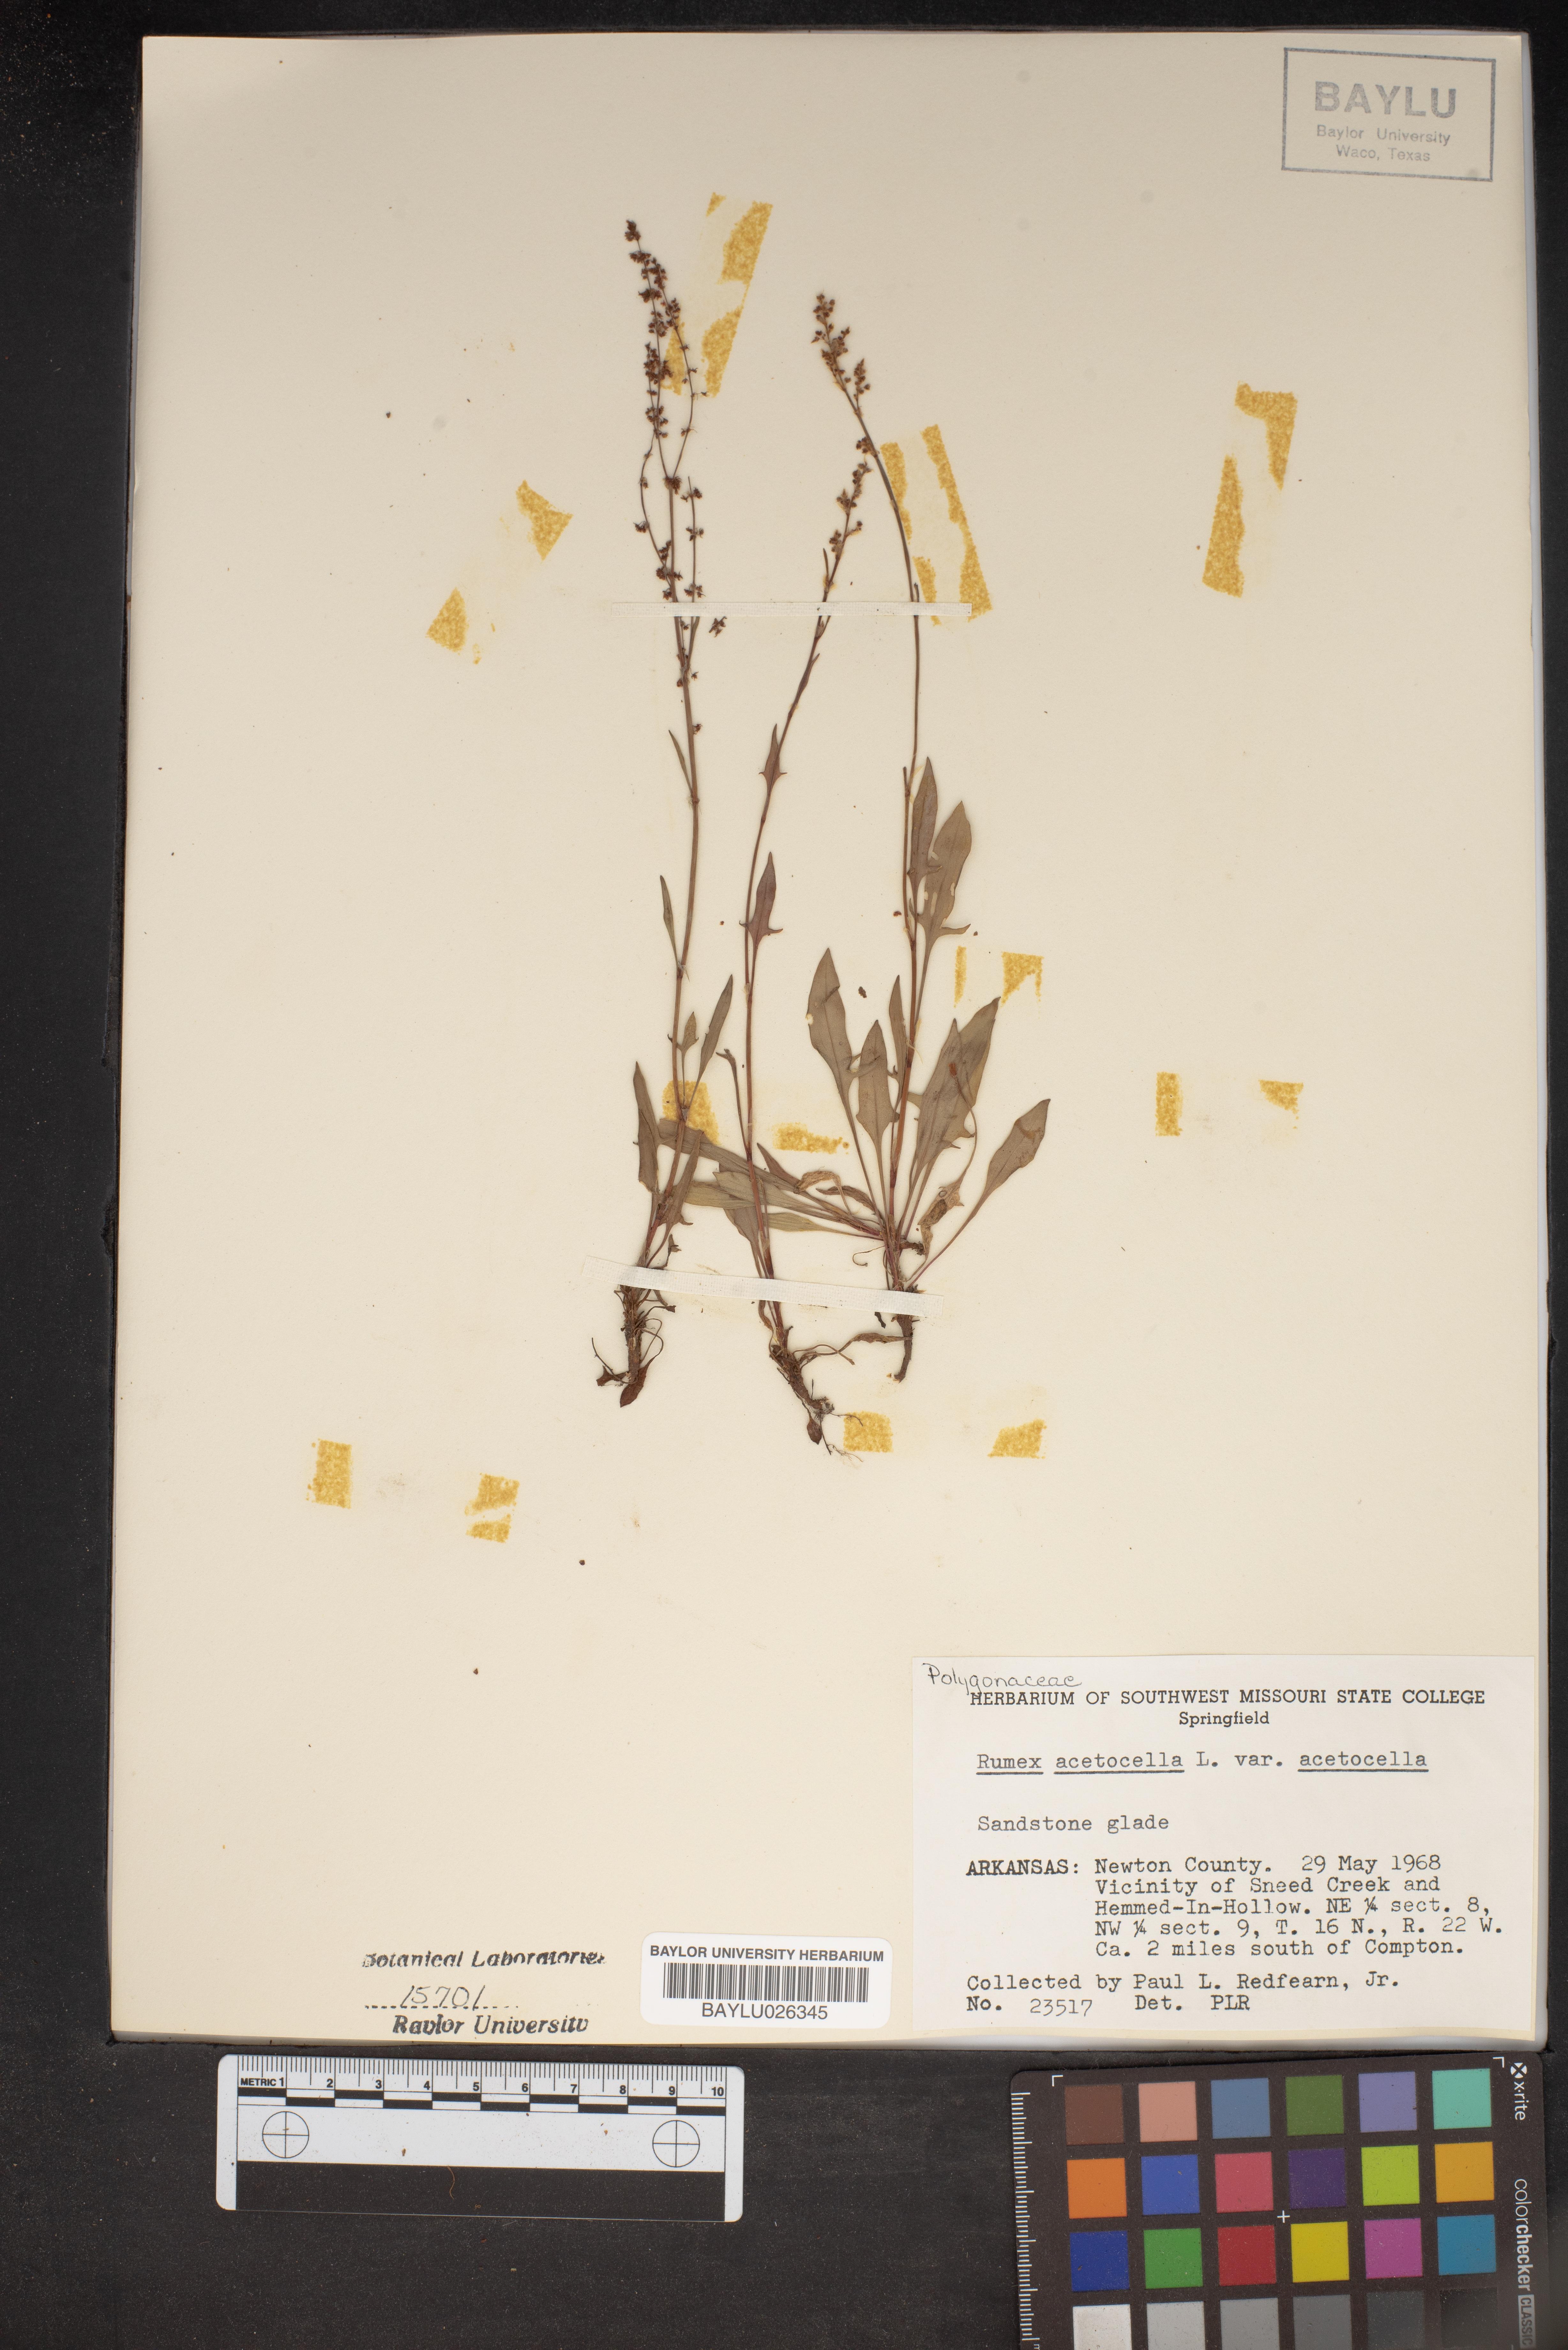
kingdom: Plantae
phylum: Tracheophyta
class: Magnoliopsida
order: Caryophyllales
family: Polygonaceae
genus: Rumex
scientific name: Rumex acetosella
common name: Common sheep sorrel
